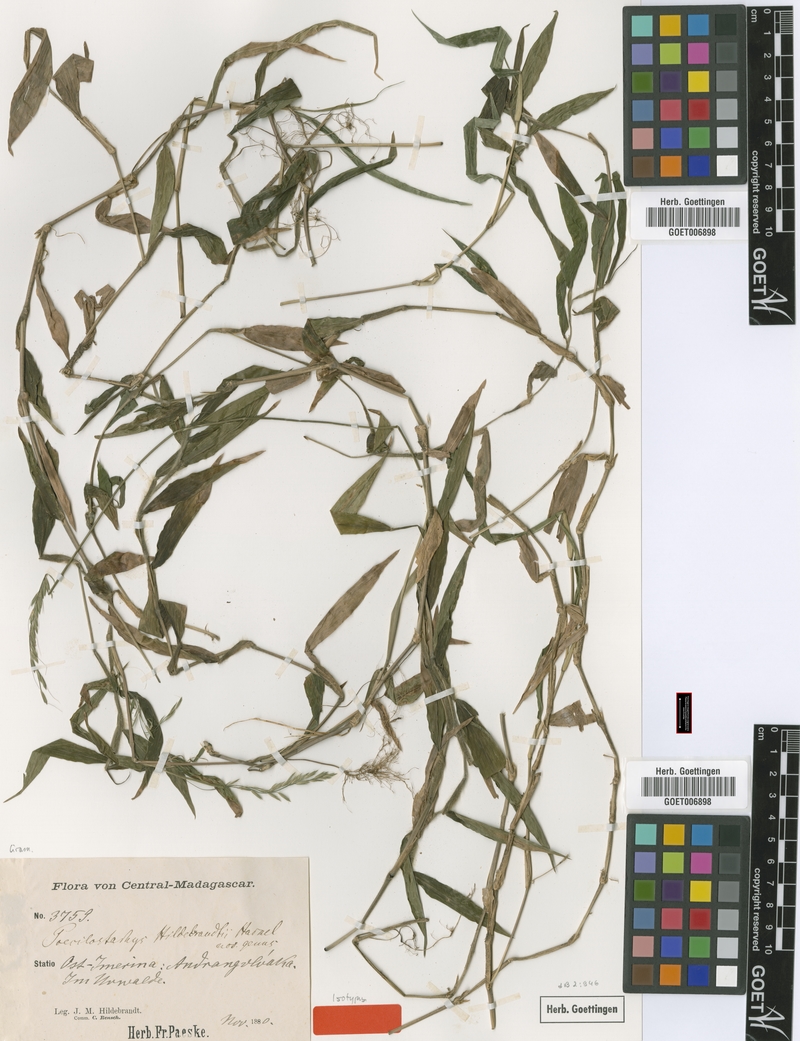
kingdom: Plantae
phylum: Tracheophyta
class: Liliopsida
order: Poales
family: Poaceae
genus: Poecilostachys
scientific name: Poecilostachys hildebrandtii
